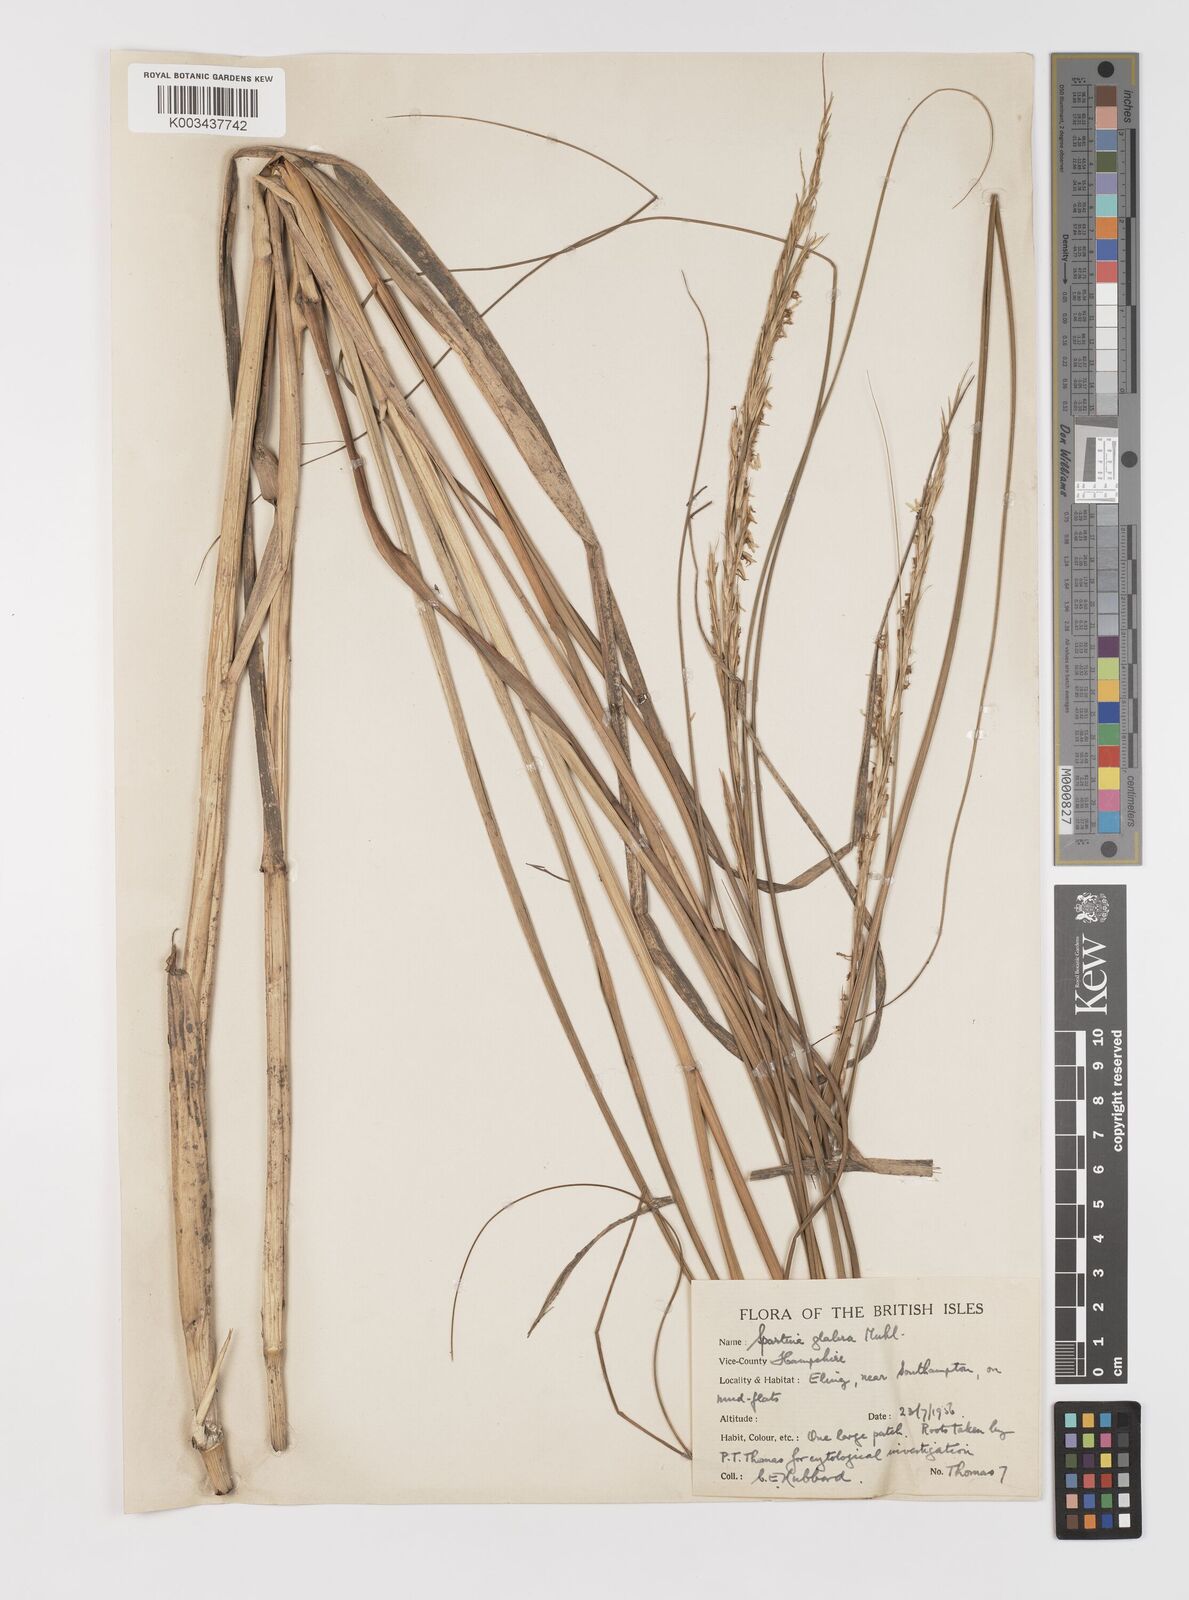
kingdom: Plantae
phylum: Tracheophyta
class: Liliopsida
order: Poales
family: Poaceae
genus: Sporobolus
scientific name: Sporobolus alterniflorus
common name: Atlantic cordgrass
